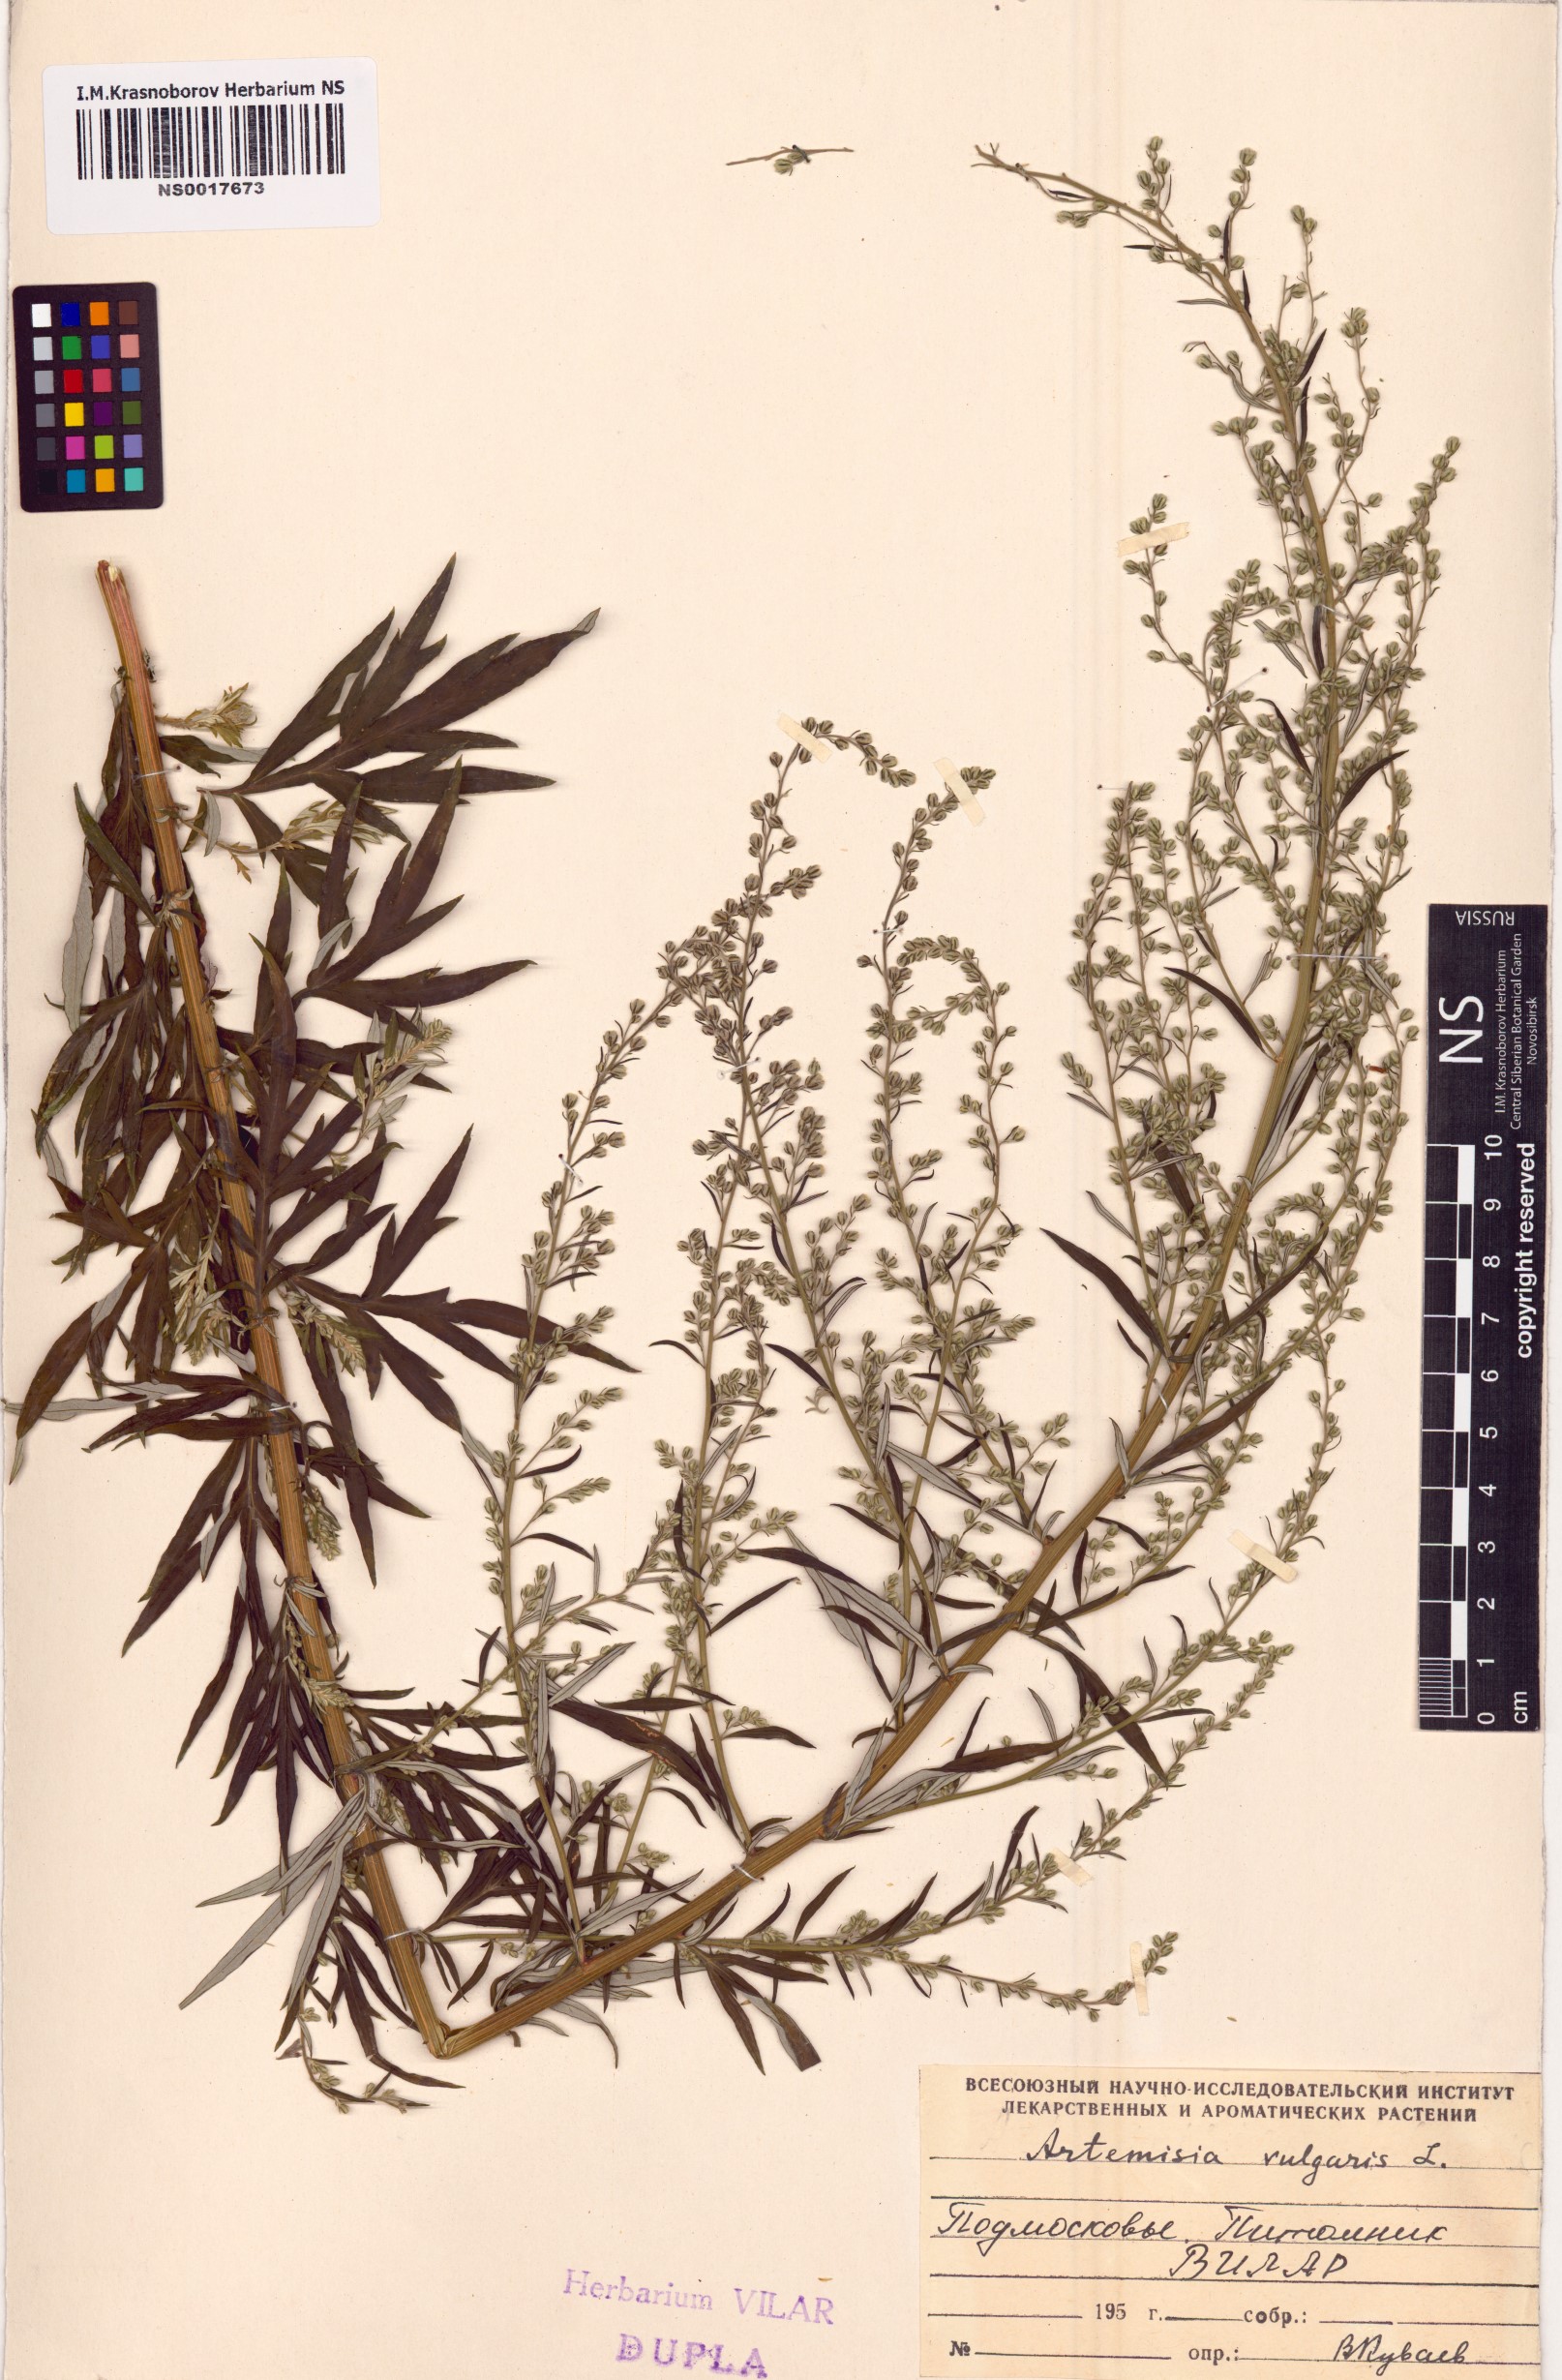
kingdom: Plantae
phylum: Tracheophyta
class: Magnoliopsida
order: Asterales
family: Asteraceae
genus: Artemisia
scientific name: Artemisia vulgaris
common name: Mugwort
